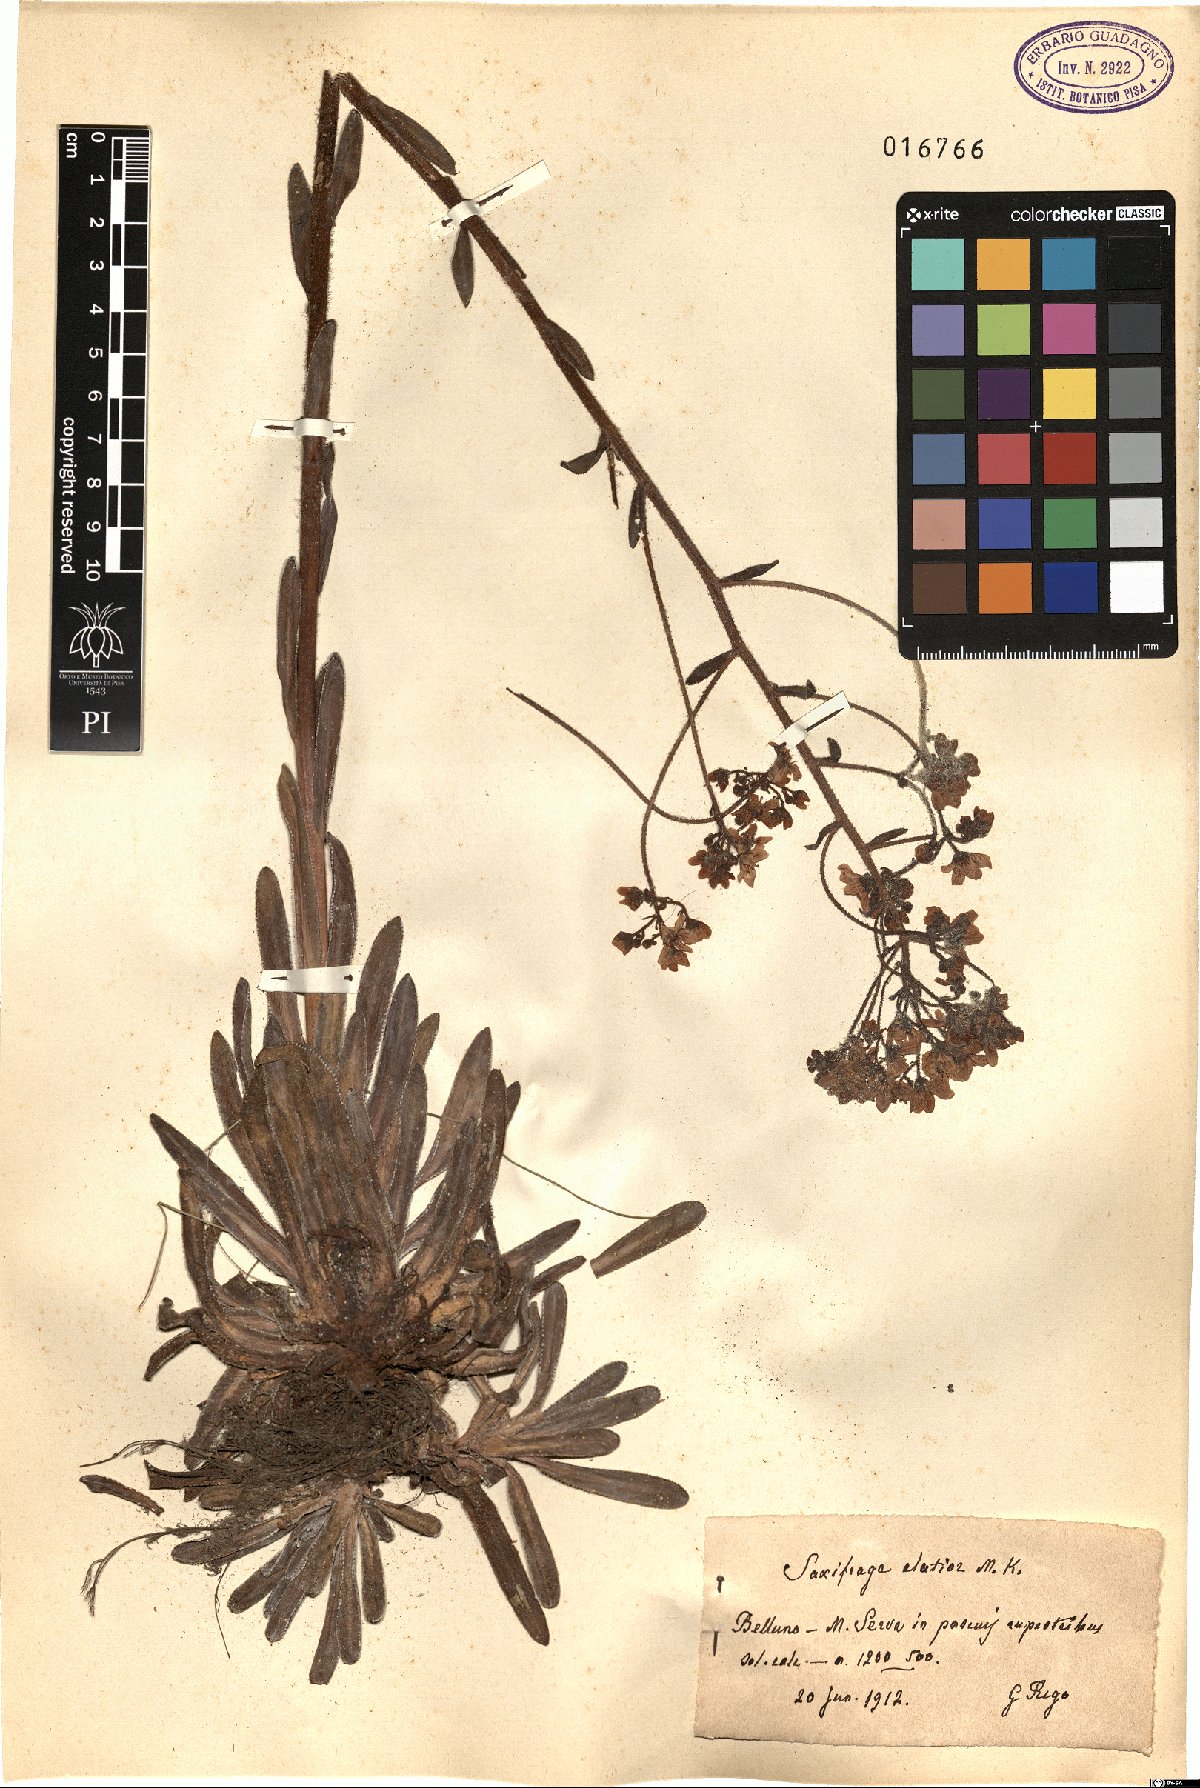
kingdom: Plantae
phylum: Tracheophyta
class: Magnoliopsida
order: Saxifragales
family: Saxifragaceae
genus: Saxifraga
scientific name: Saxifraga hostii
